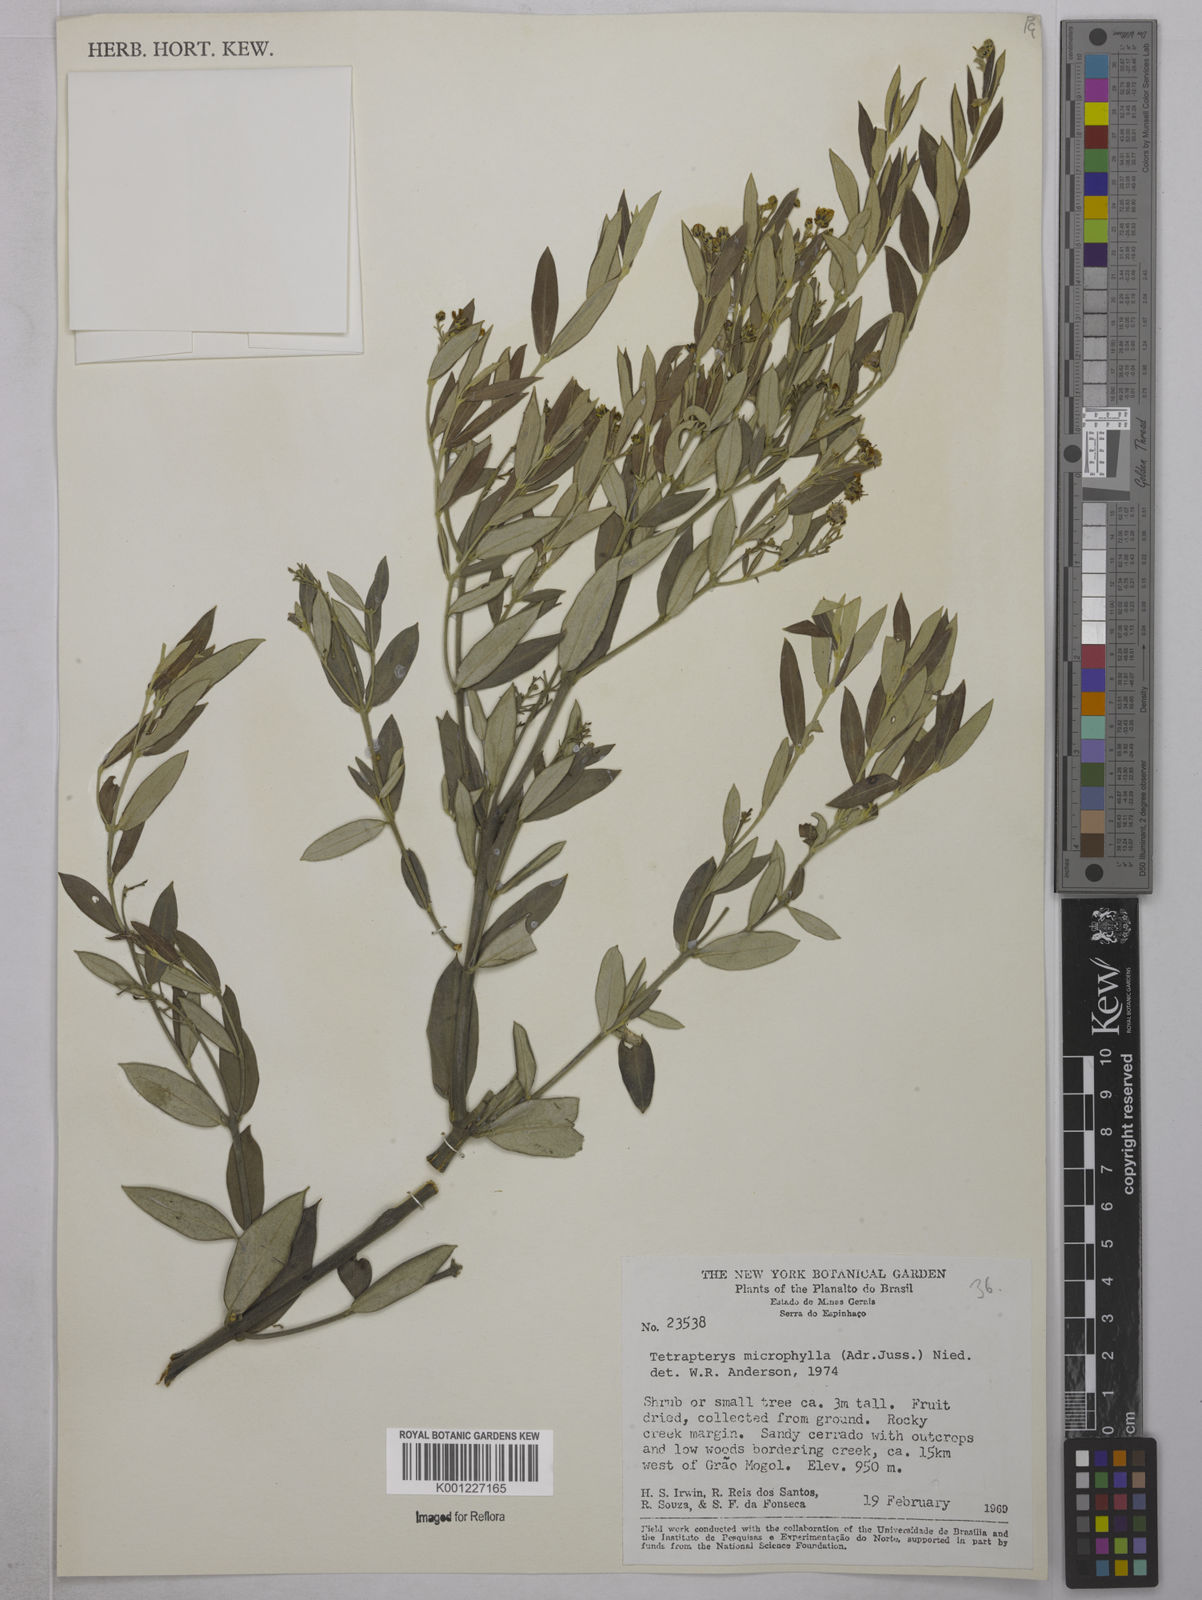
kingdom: Plantae
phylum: Tracheophyta
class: Magnoliopsida
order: Malpighiales
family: Malpighiaceae
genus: Glicophyllum
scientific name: Glicophyllum microphyllum
